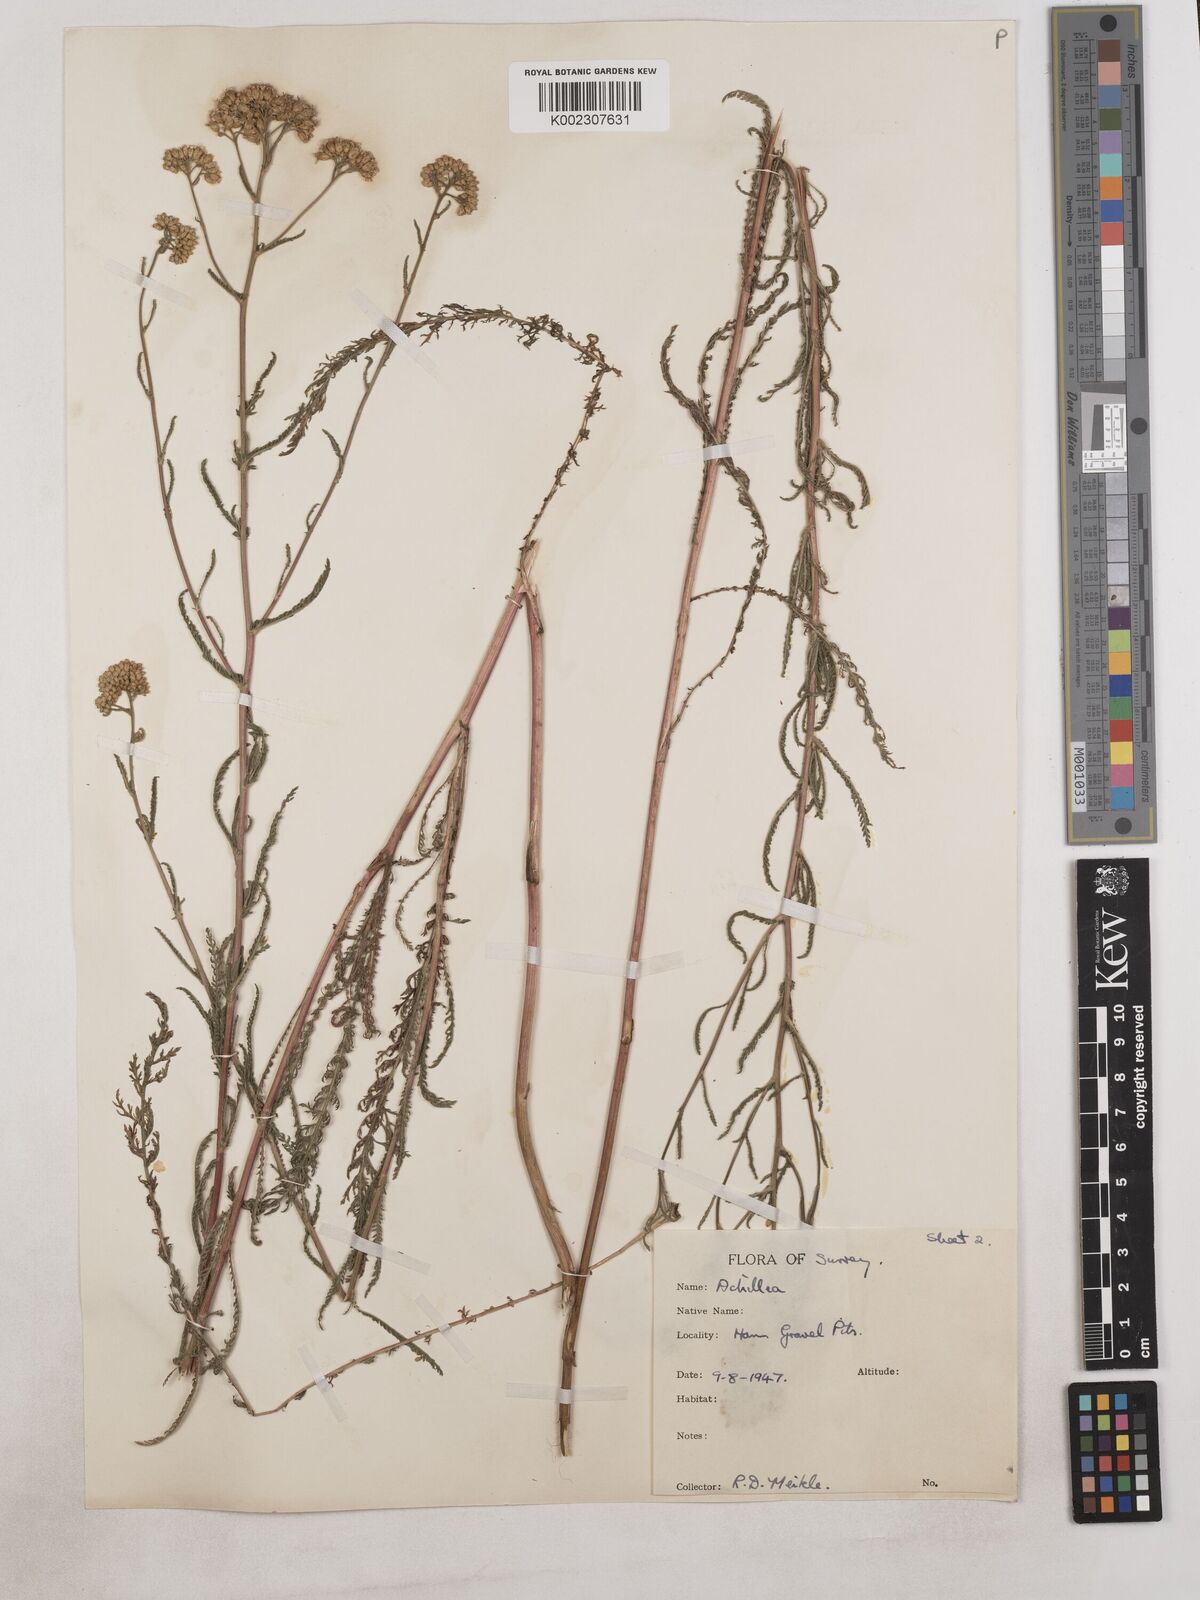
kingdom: Plantae
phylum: Tracheophyta
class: Magnoliopsida
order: Asterales
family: Asteraceae
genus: Achillea
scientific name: Achillea
